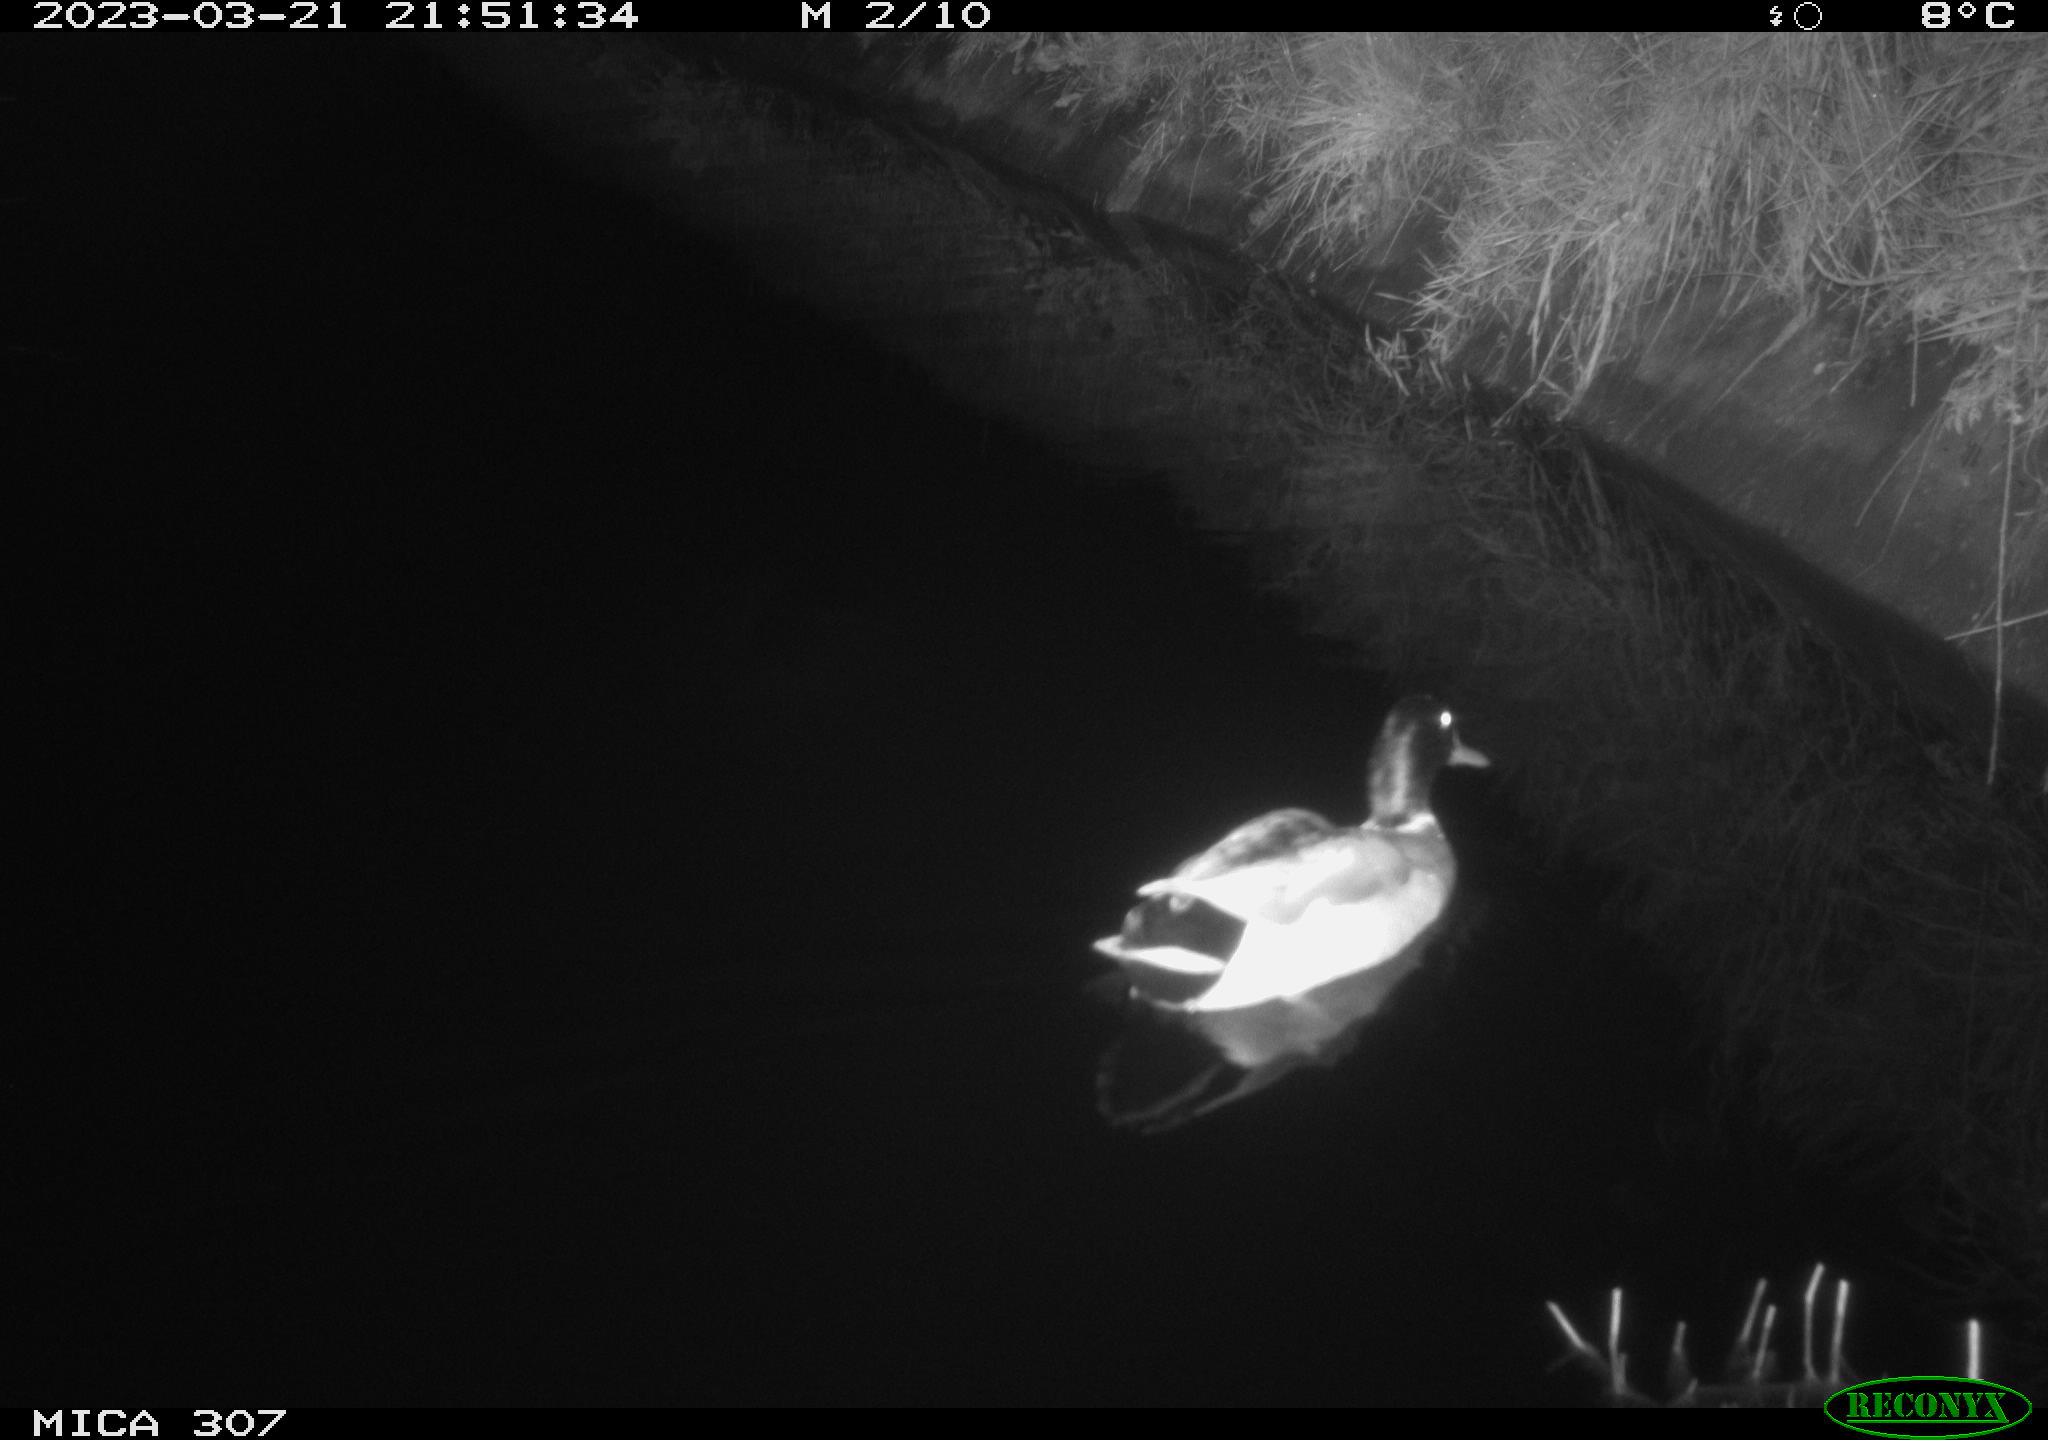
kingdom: Animalia
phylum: Chordata
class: Aves
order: Anseriformes
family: Anatidae
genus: Anas
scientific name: Anas
